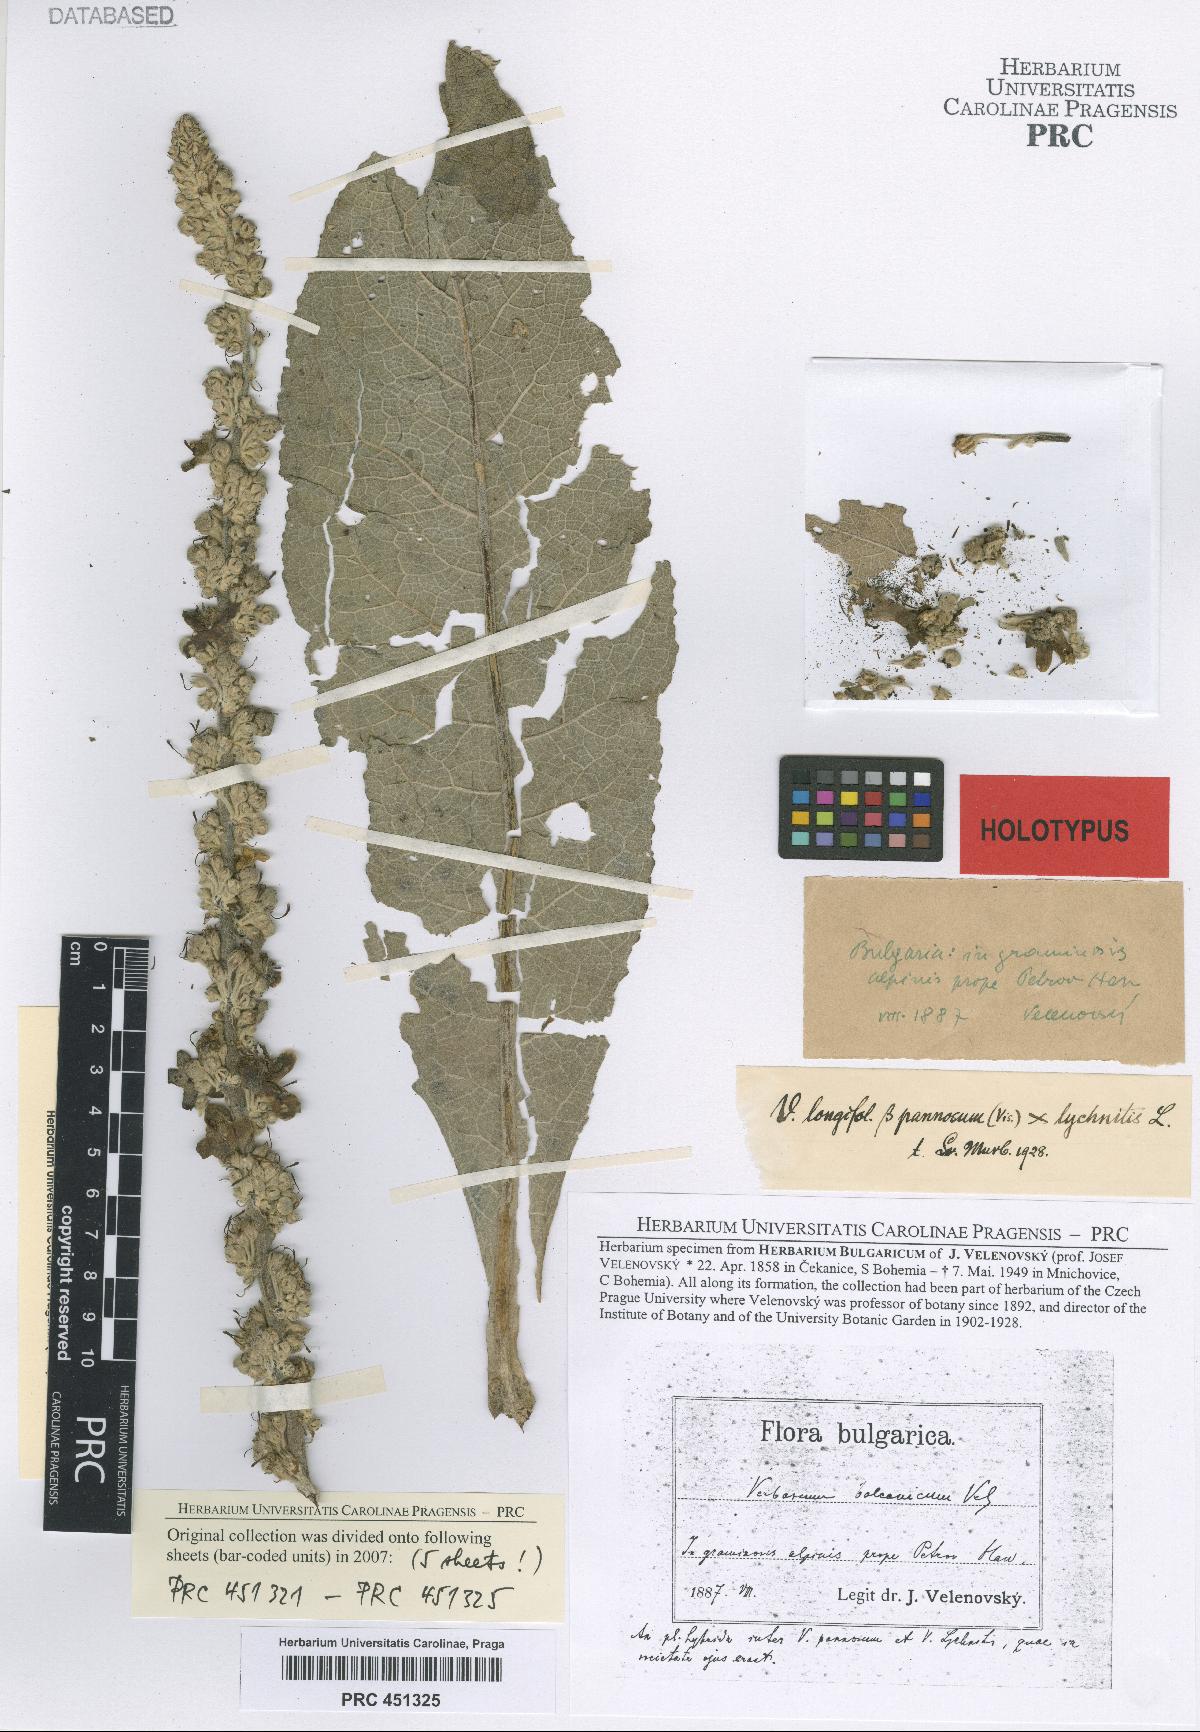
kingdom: Plantae
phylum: Tracheophyta
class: Magnoliopsida
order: Lamiales
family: Scrophulariaceae
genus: Verbascum
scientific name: Verbascum balcanicum
